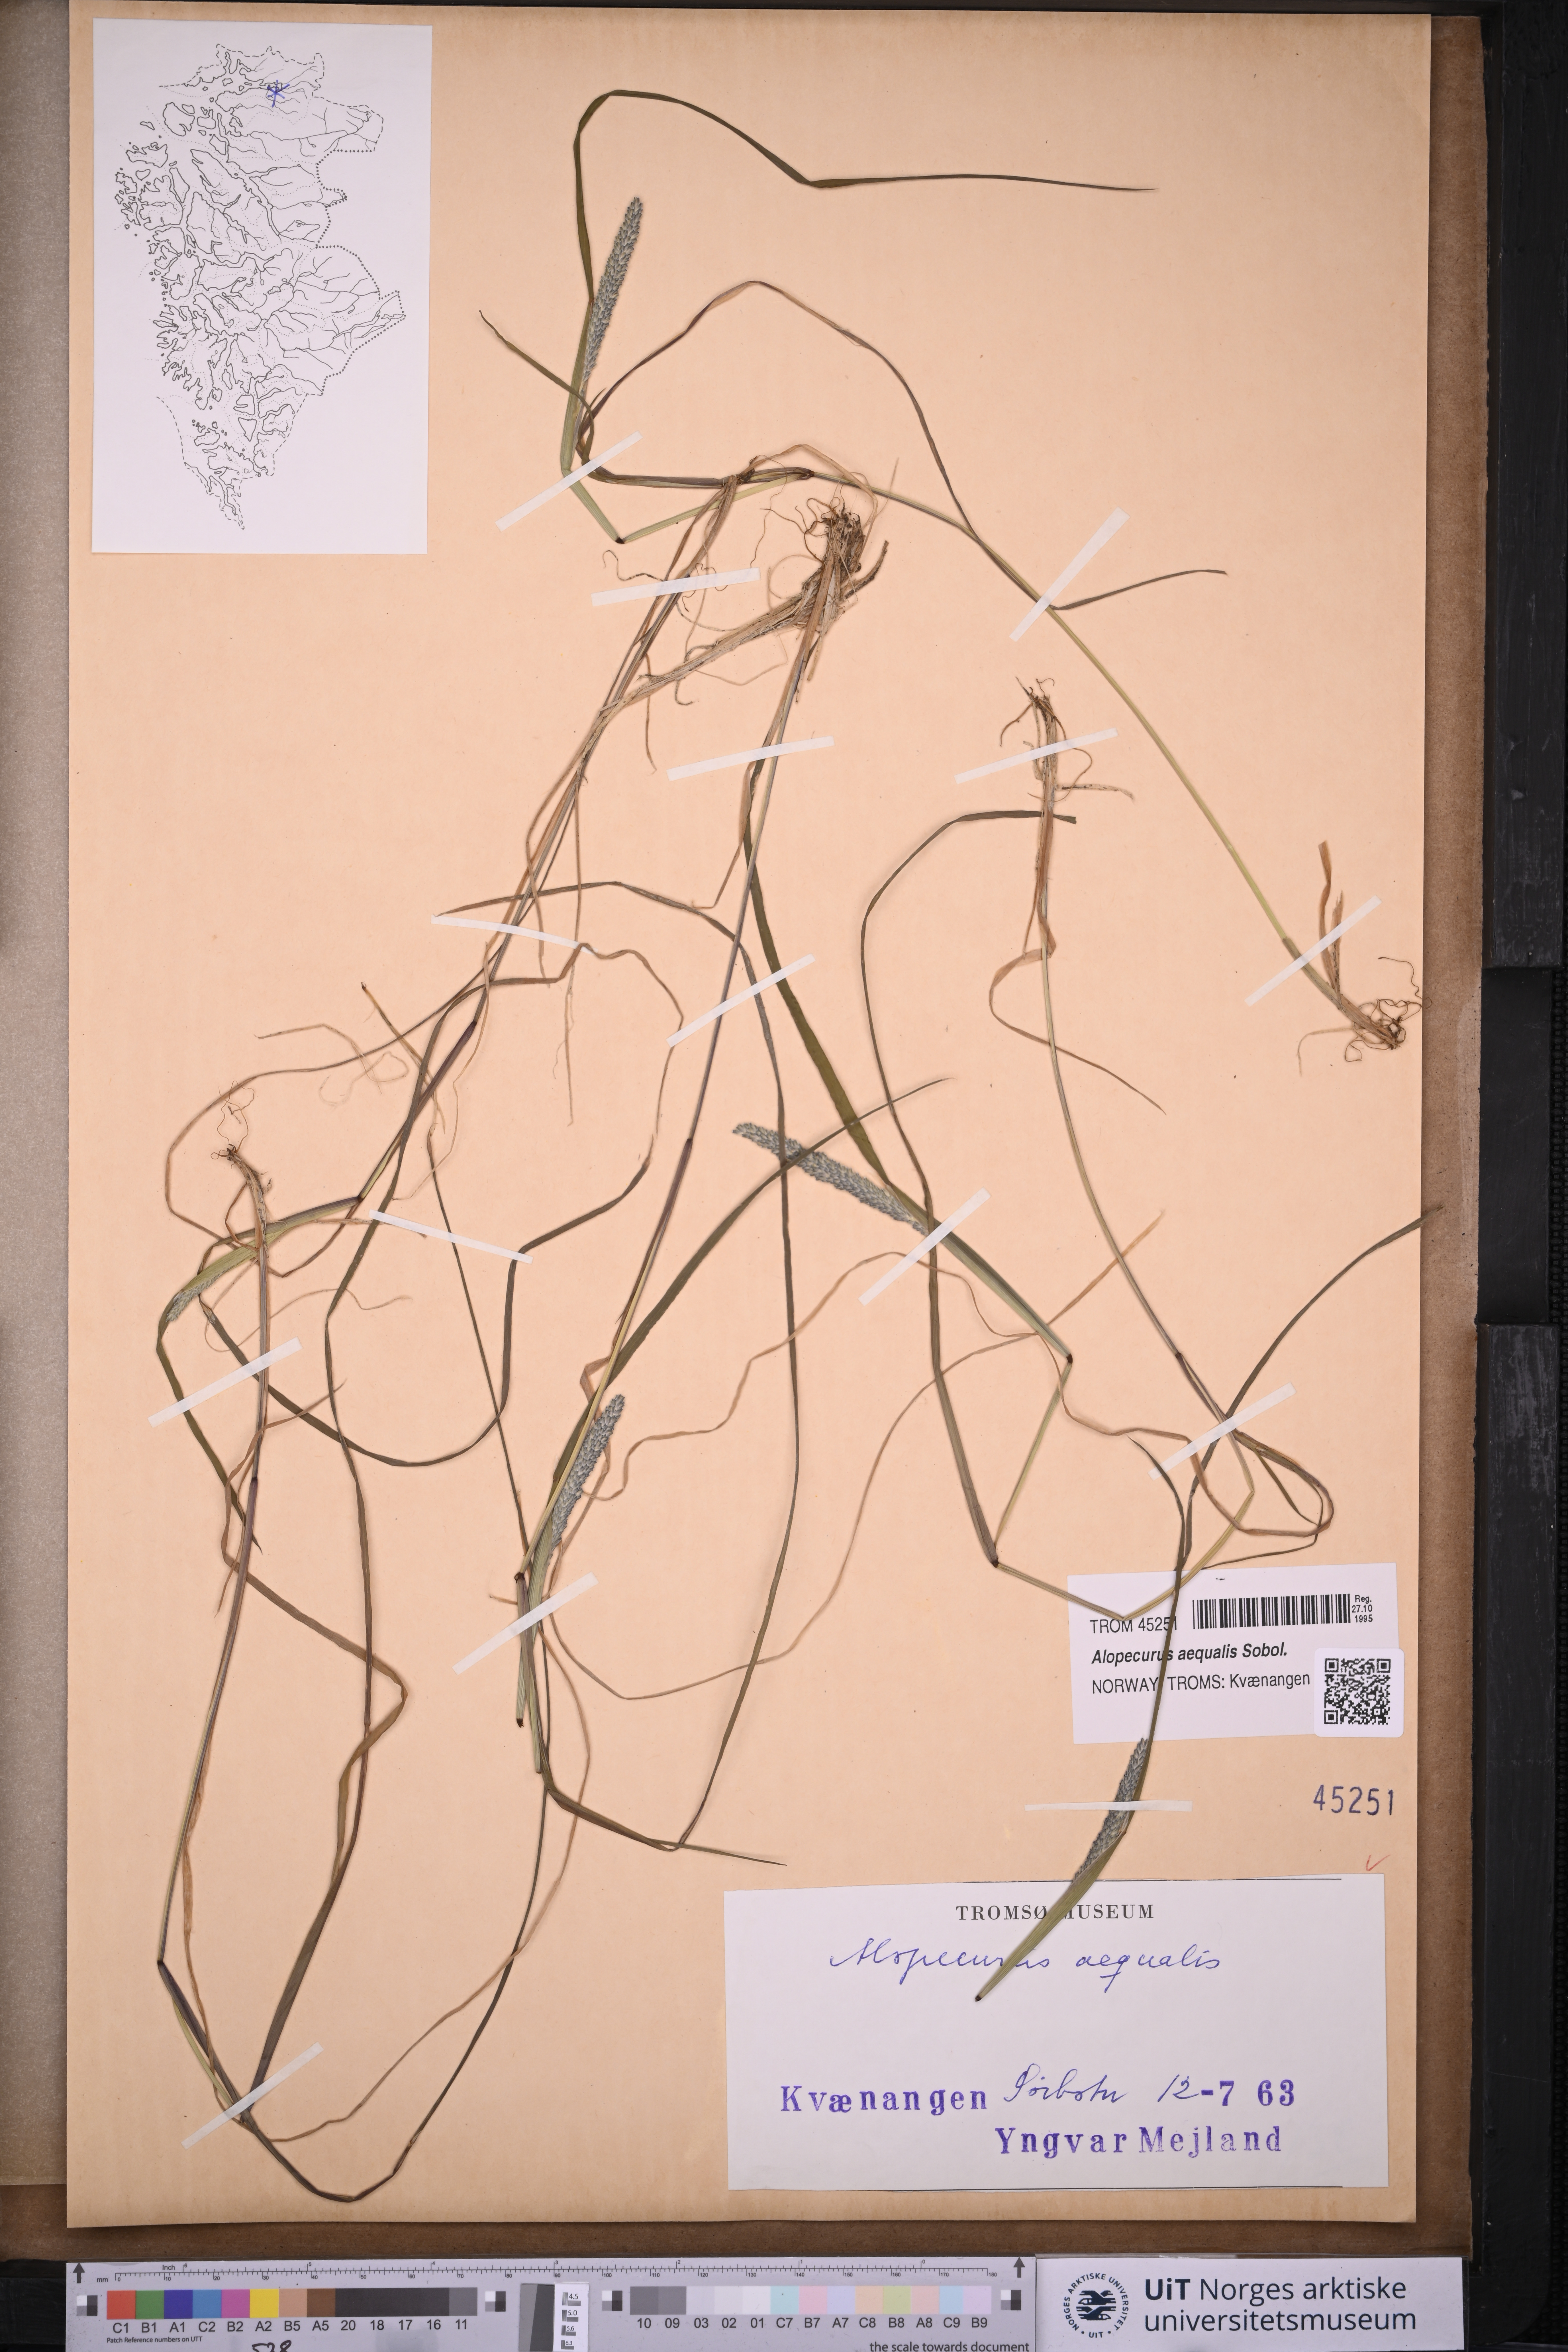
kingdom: Plantae
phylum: Tracheophyta
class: Liliopsida
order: Poales
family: Poaceae
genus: Alopecurus
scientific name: Alopecurus aequalis
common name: Orange foxtail
